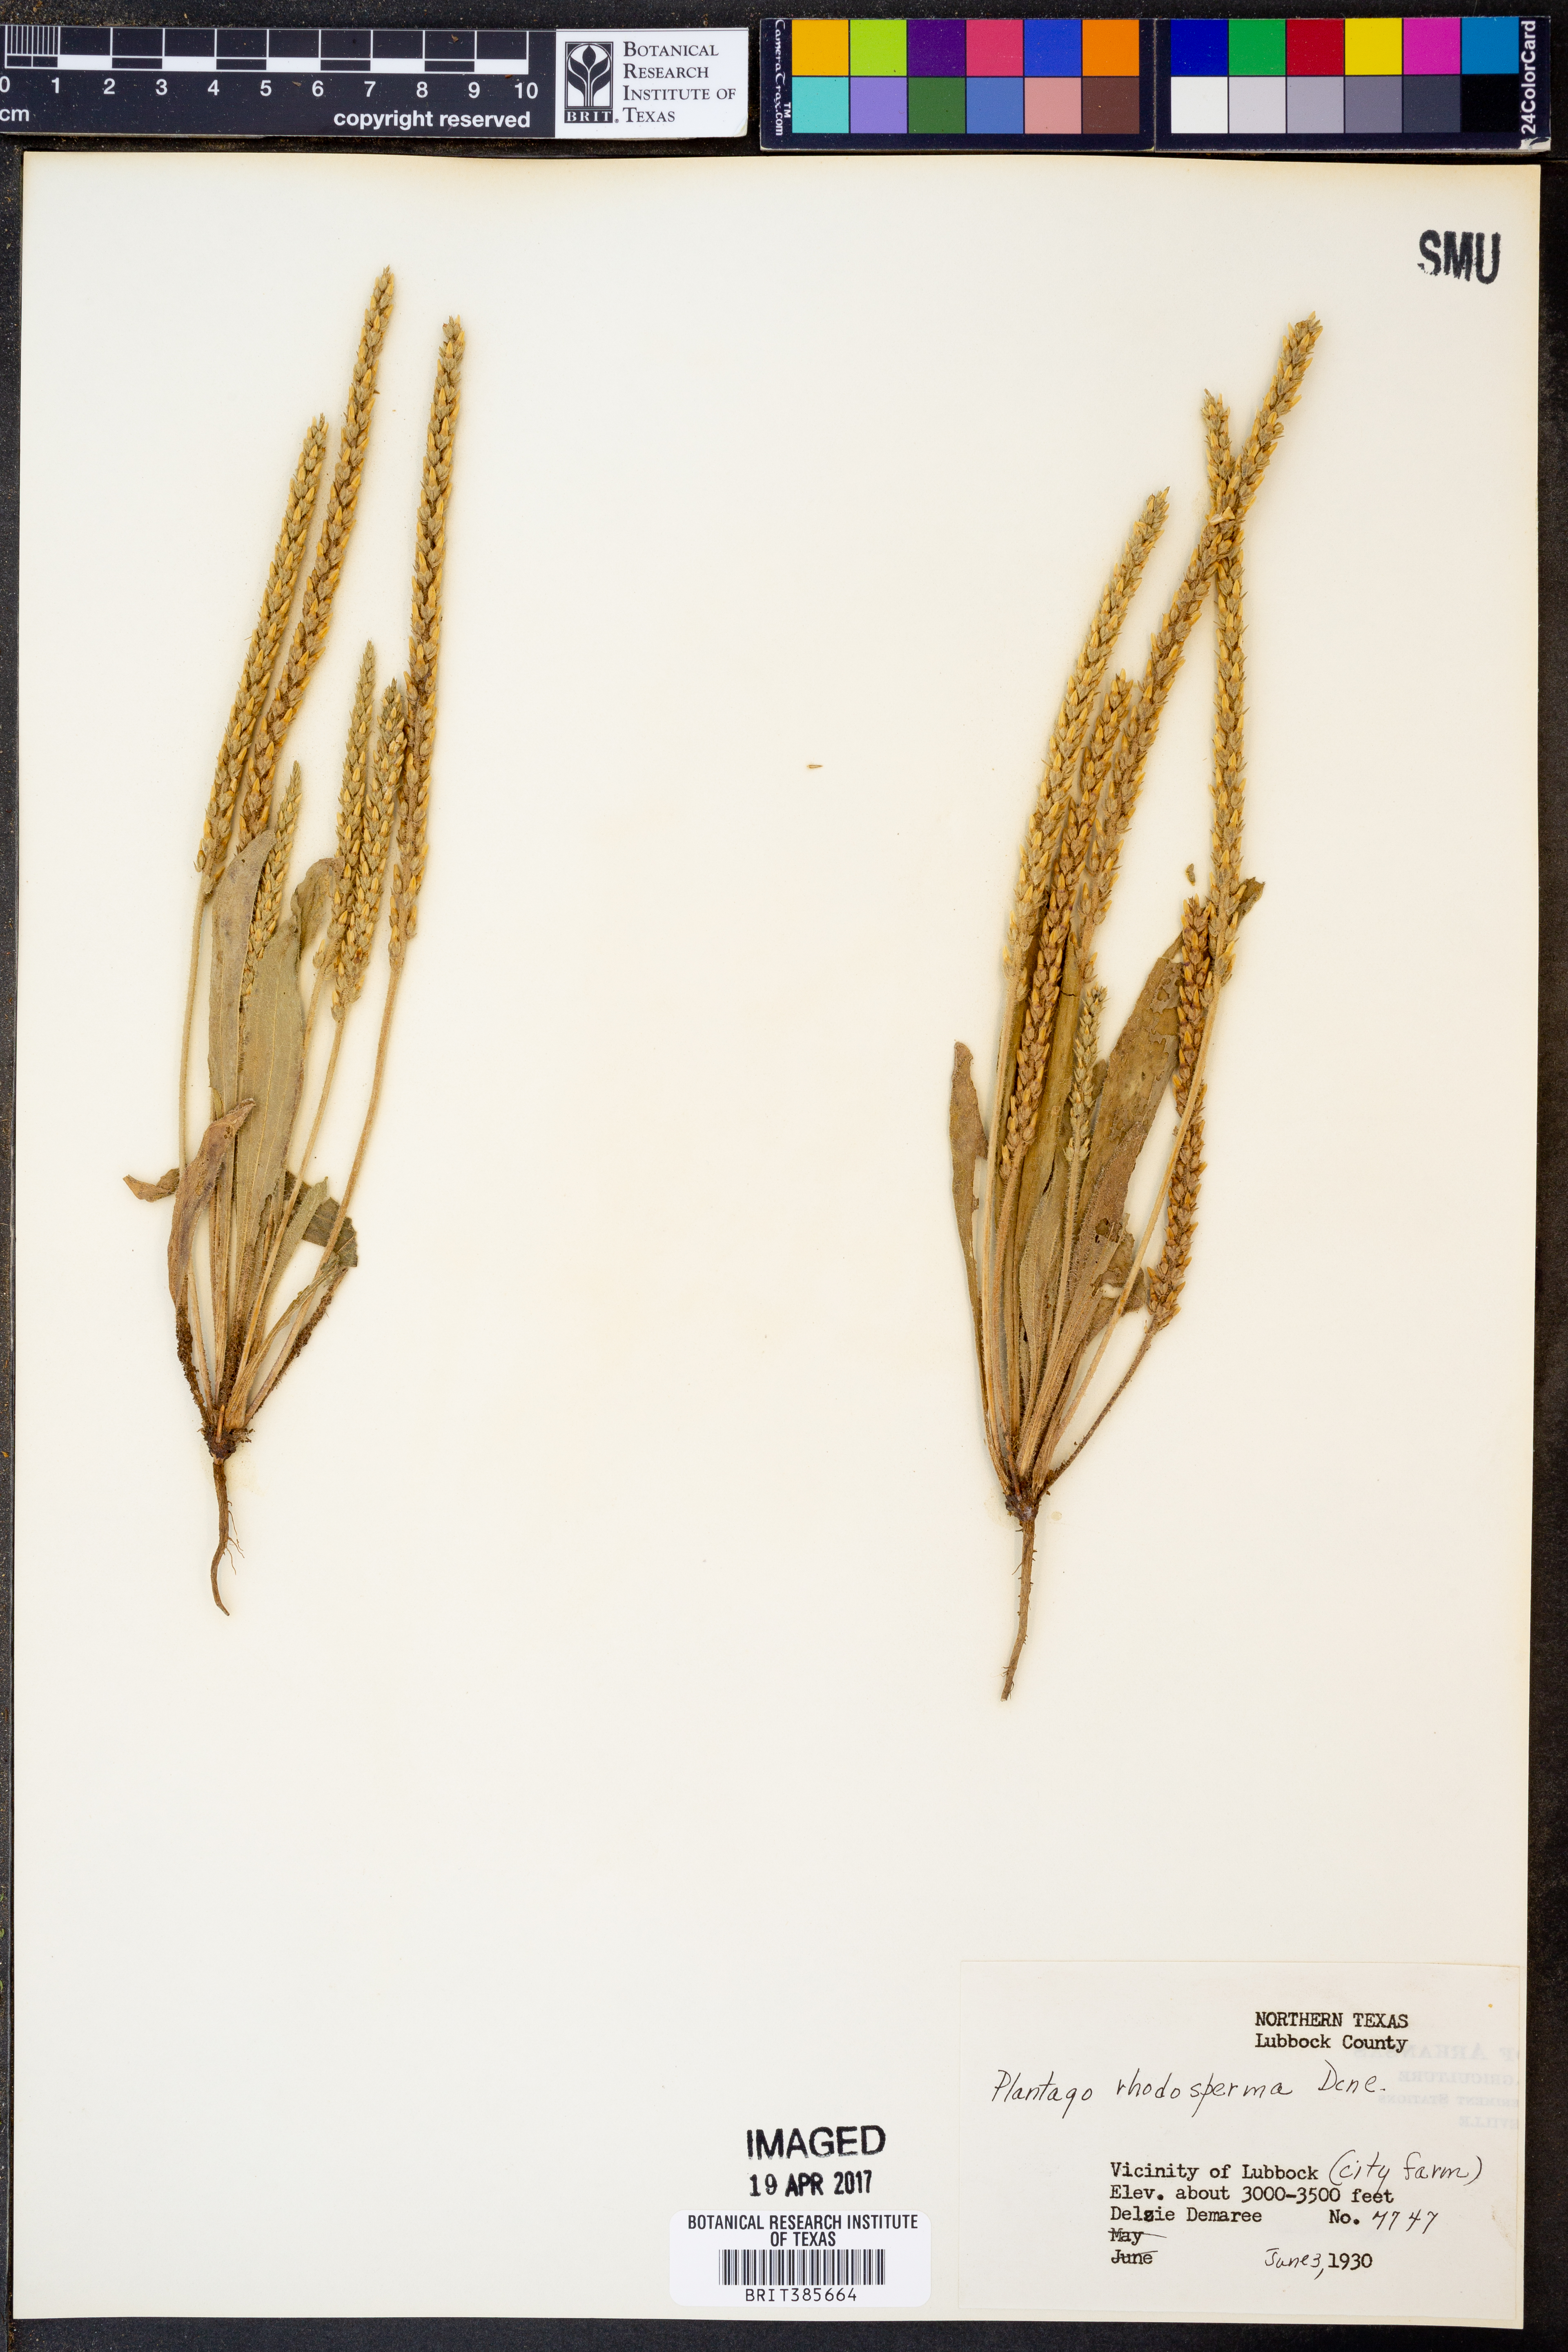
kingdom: Plantae
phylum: Tracheophyta
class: Magnoliopsida
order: Lamiales
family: Plantaginaceae
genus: Plantago
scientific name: Plantago rhodosperma
